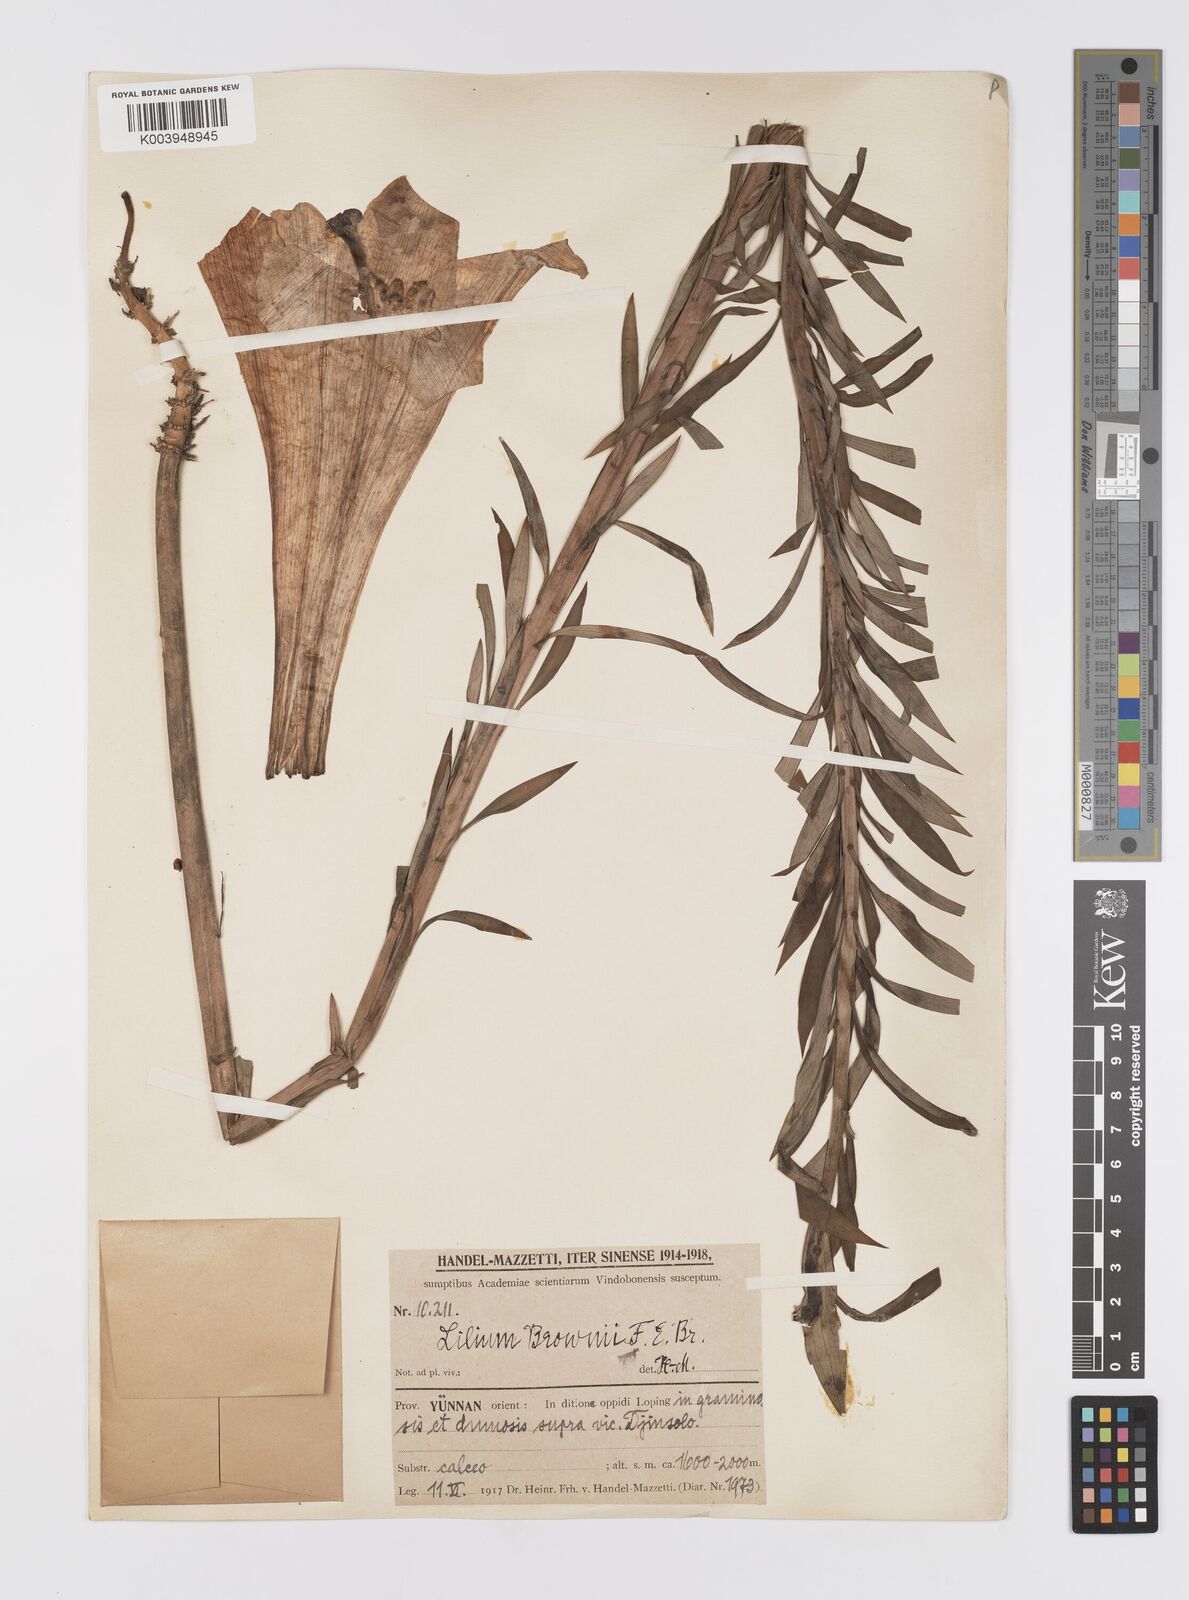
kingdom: Plantae
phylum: Tracheophyta
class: Liliopsida
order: Liliales
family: Liliaceae
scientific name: Liliaceae
